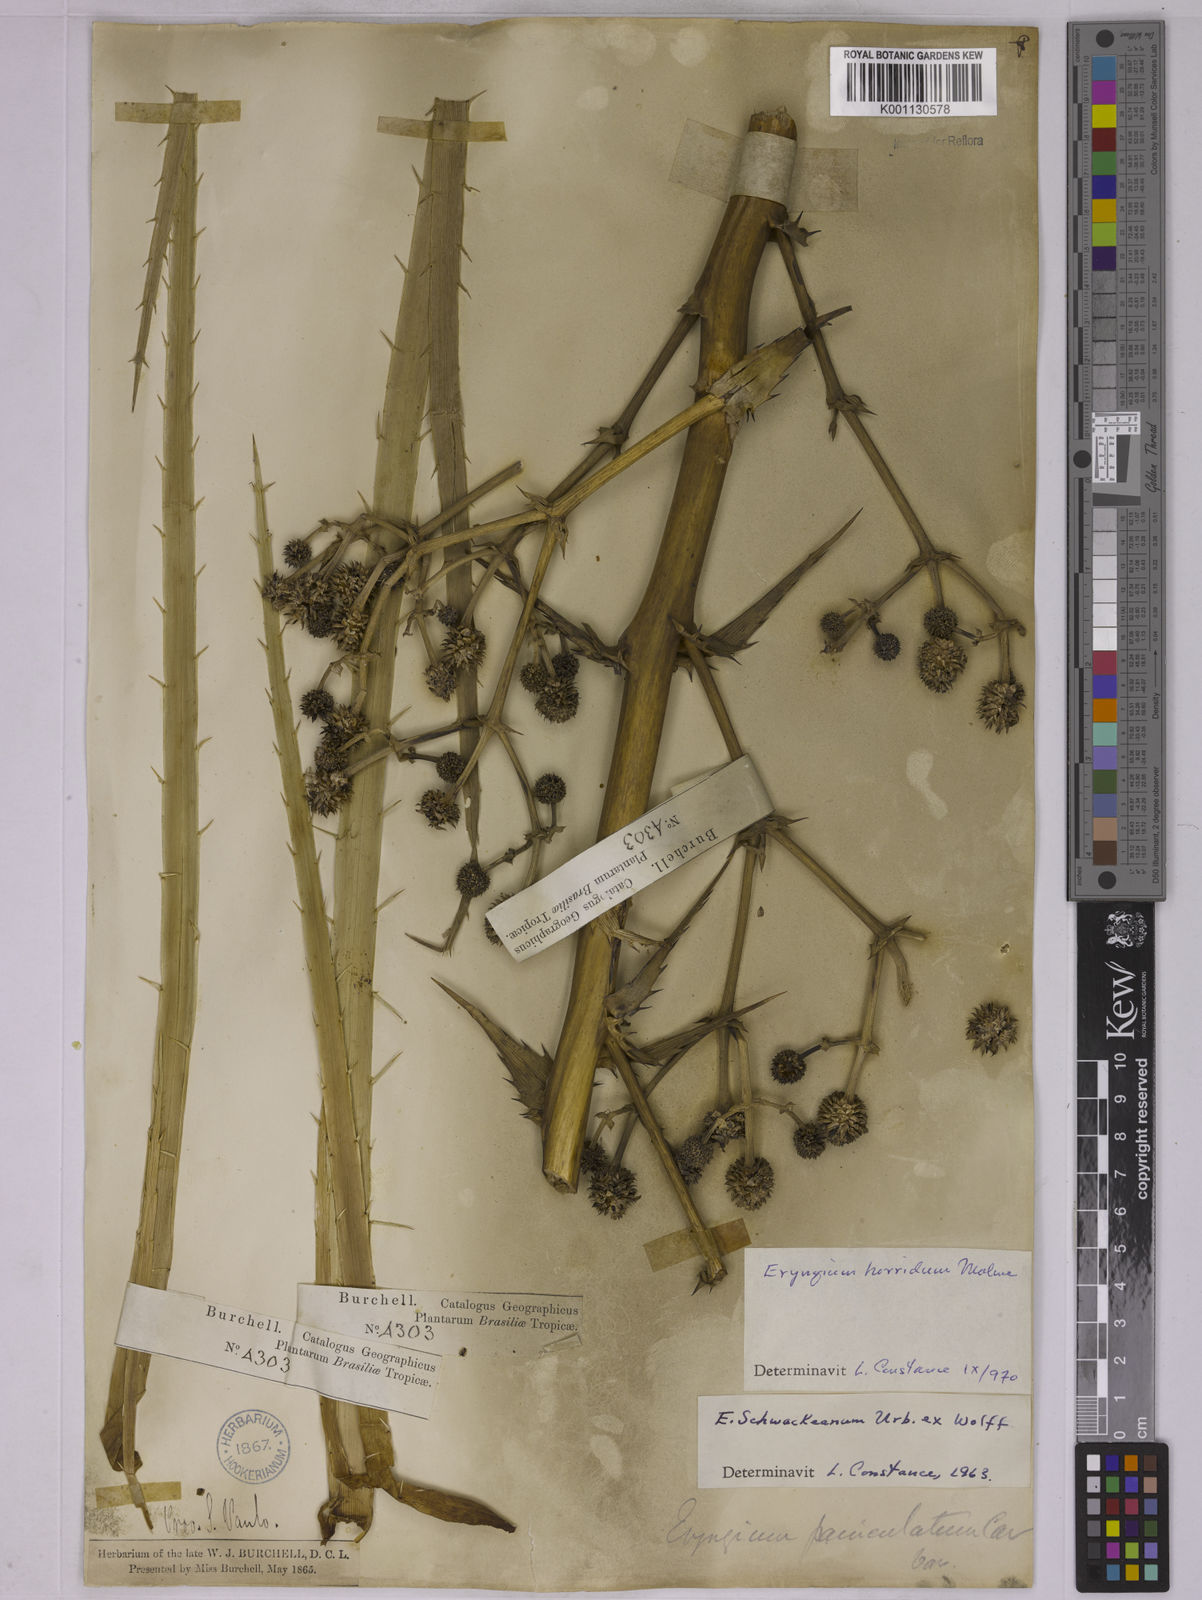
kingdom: Plantae
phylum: Tracheophyta
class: Magnoliopsida
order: Apiales
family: Apiaceae
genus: Eryngium
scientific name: Eryngium horridum
